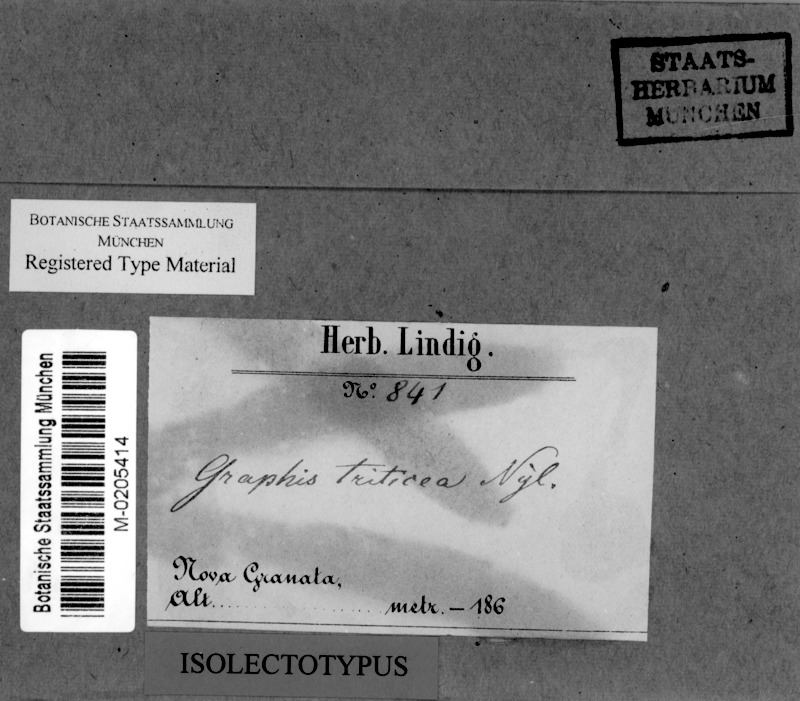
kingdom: Fungi
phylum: Ascomycota
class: Lecanoromycetes
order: Ostropales
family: Graphidaceae
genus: Fissurina
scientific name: Fissurina triticea
